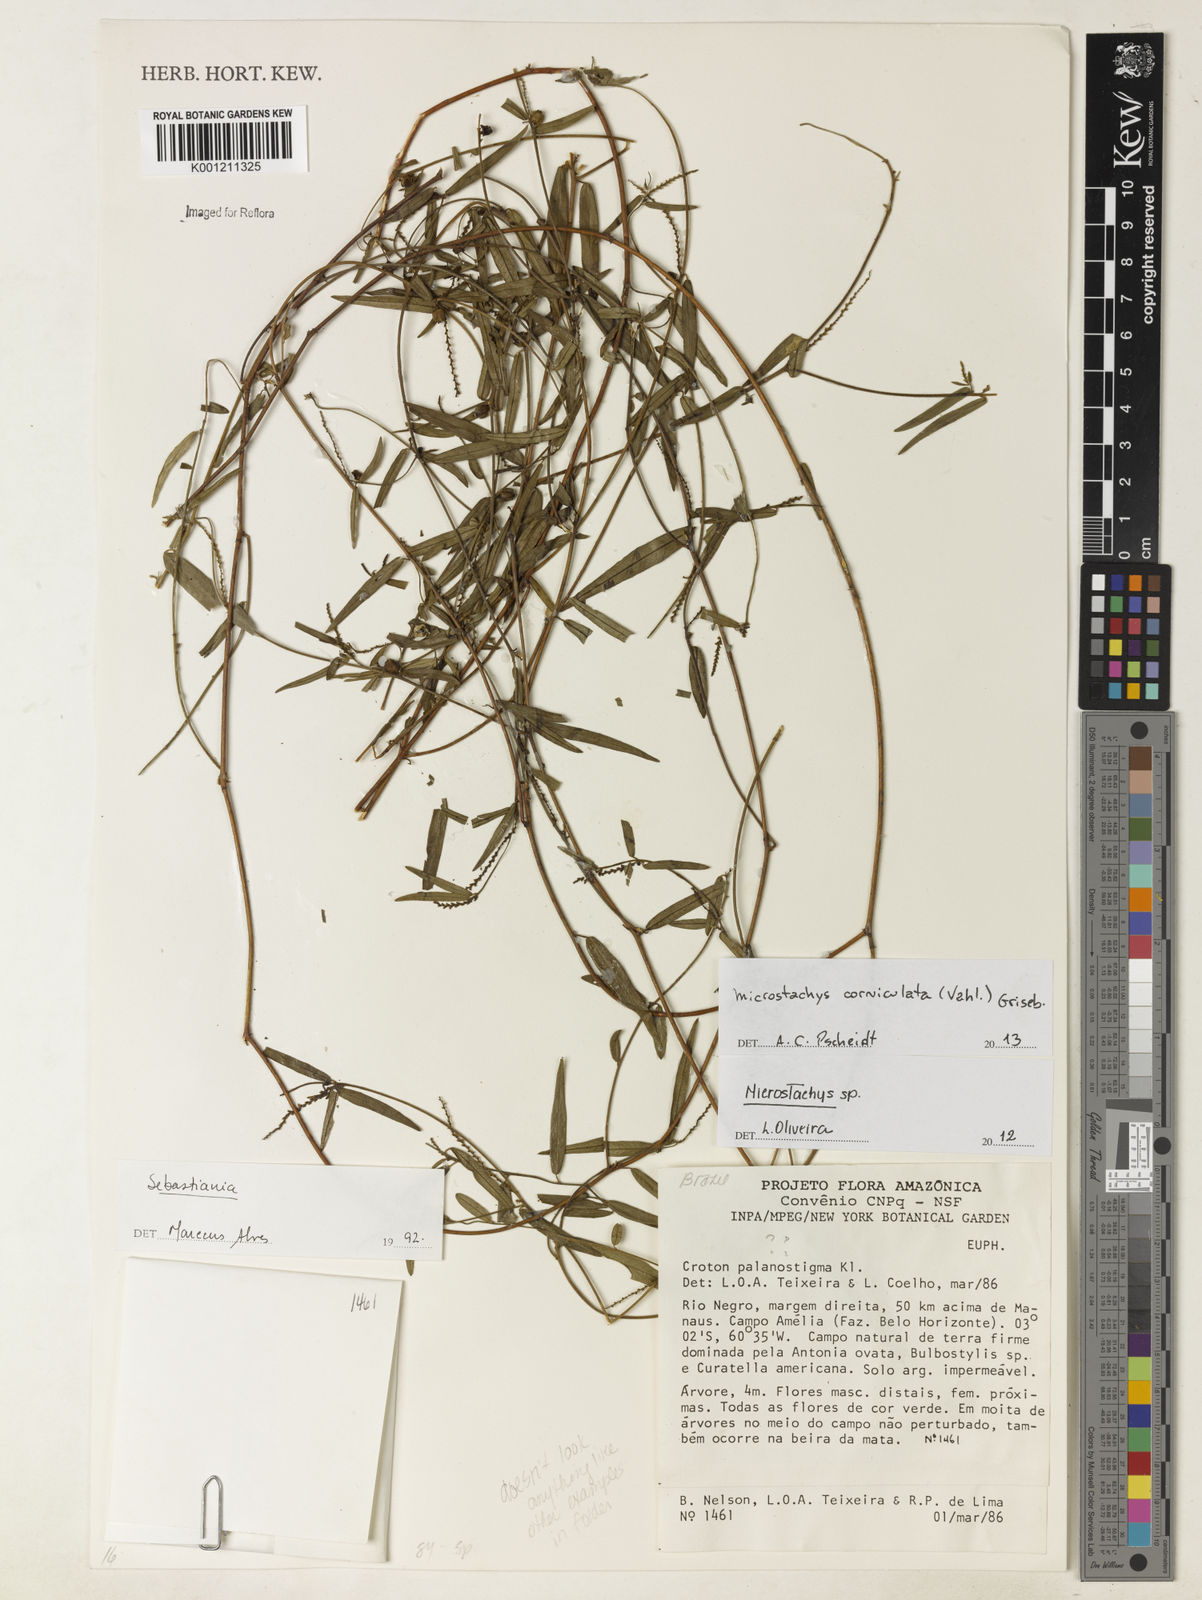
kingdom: Plantae
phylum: Tracheophyta
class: Magnoliopsida
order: Malpighiales
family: Euphorbiaceae
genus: Microstachys
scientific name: Microstachys corniculata
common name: Hato tejas
